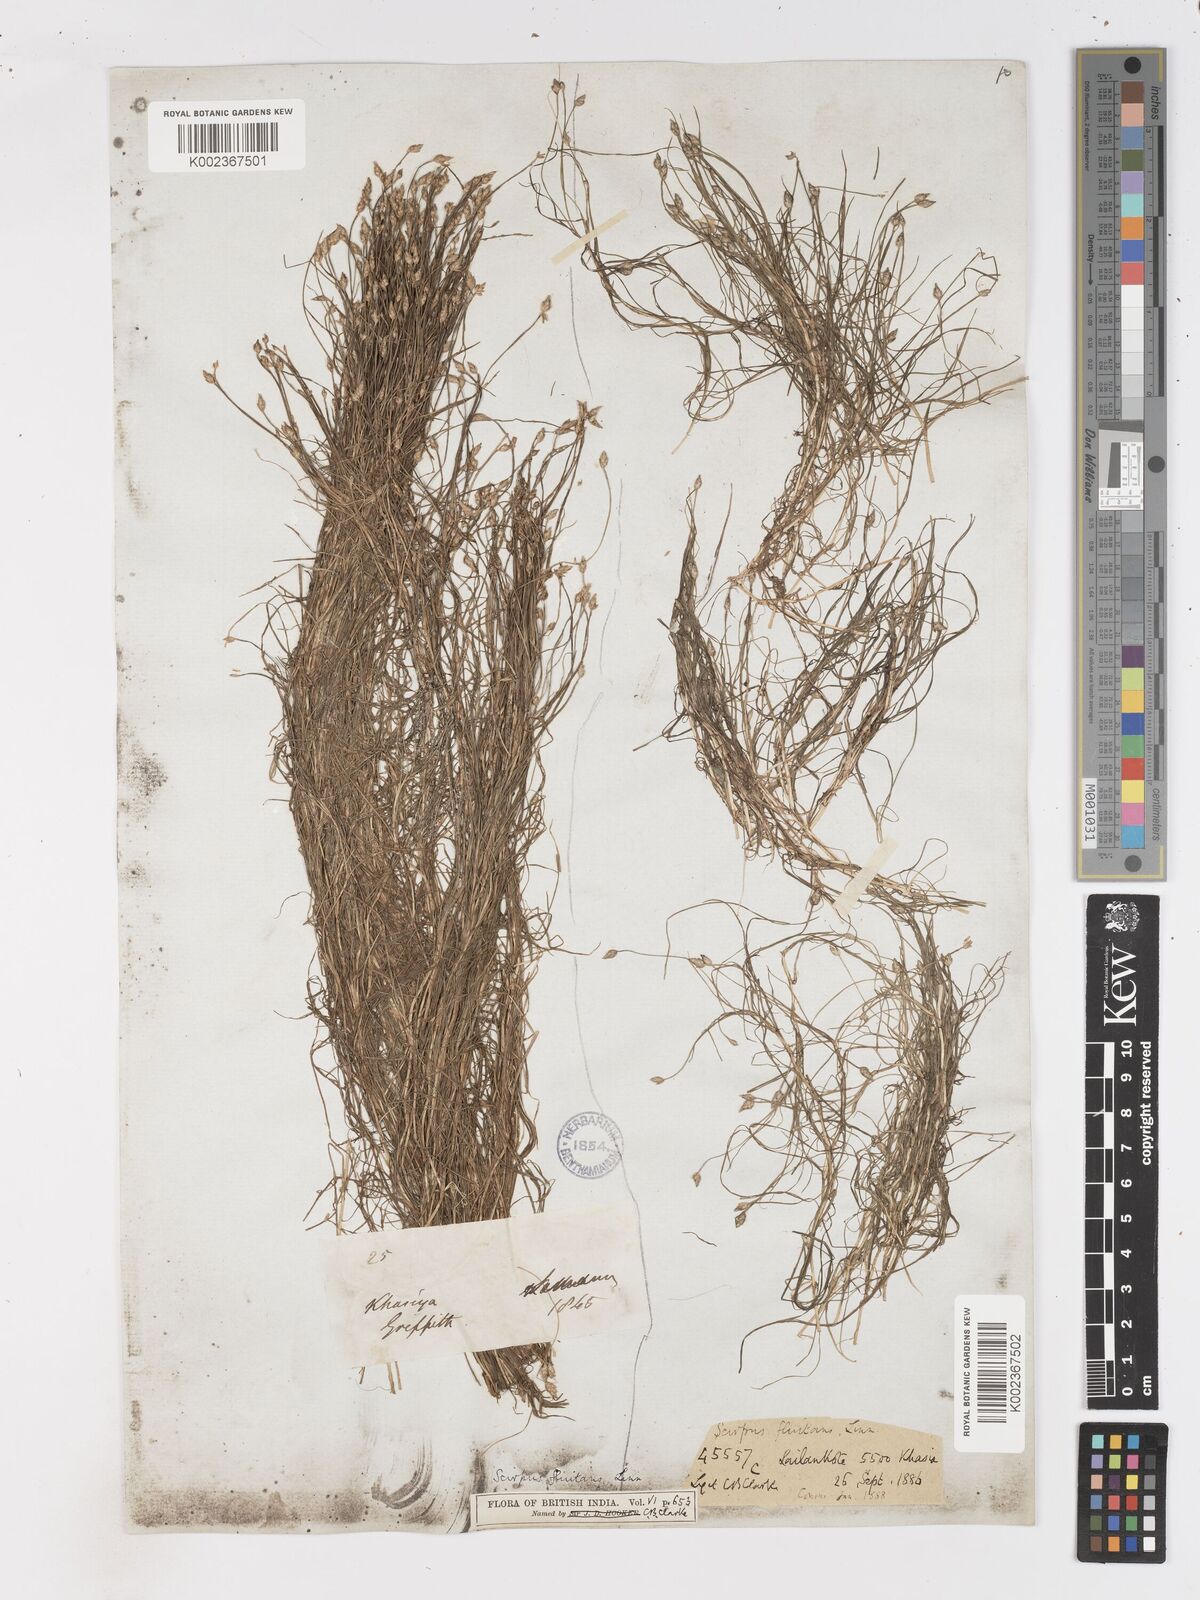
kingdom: Plantae
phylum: Tracheophyta
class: Liliopsida
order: Poales
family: Cyperaceae
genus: Isolepis
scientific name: Isolepis fluitans
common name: Floating club-rush
